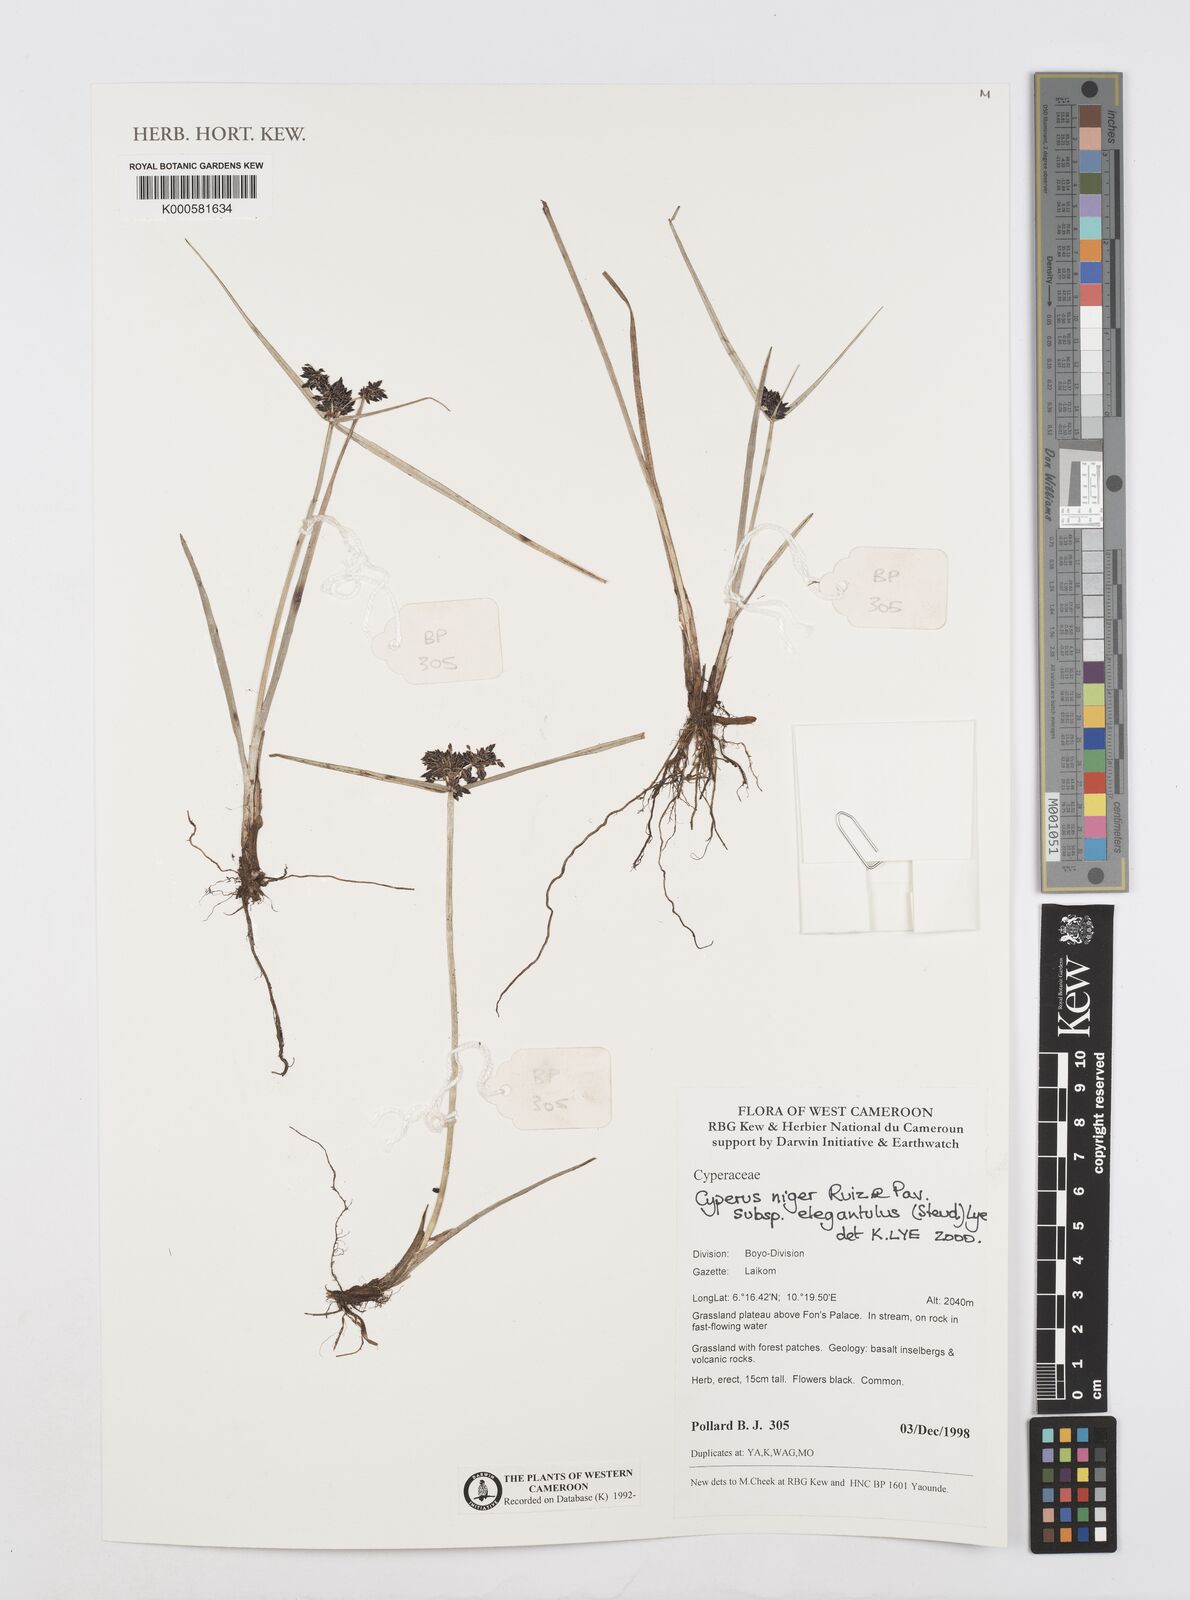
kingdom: Plantae
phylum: Tracheophyta
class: Liliopsida
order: Poales
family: Cyperaceae
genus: Cyperus
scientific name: Cyperus elegantulus
